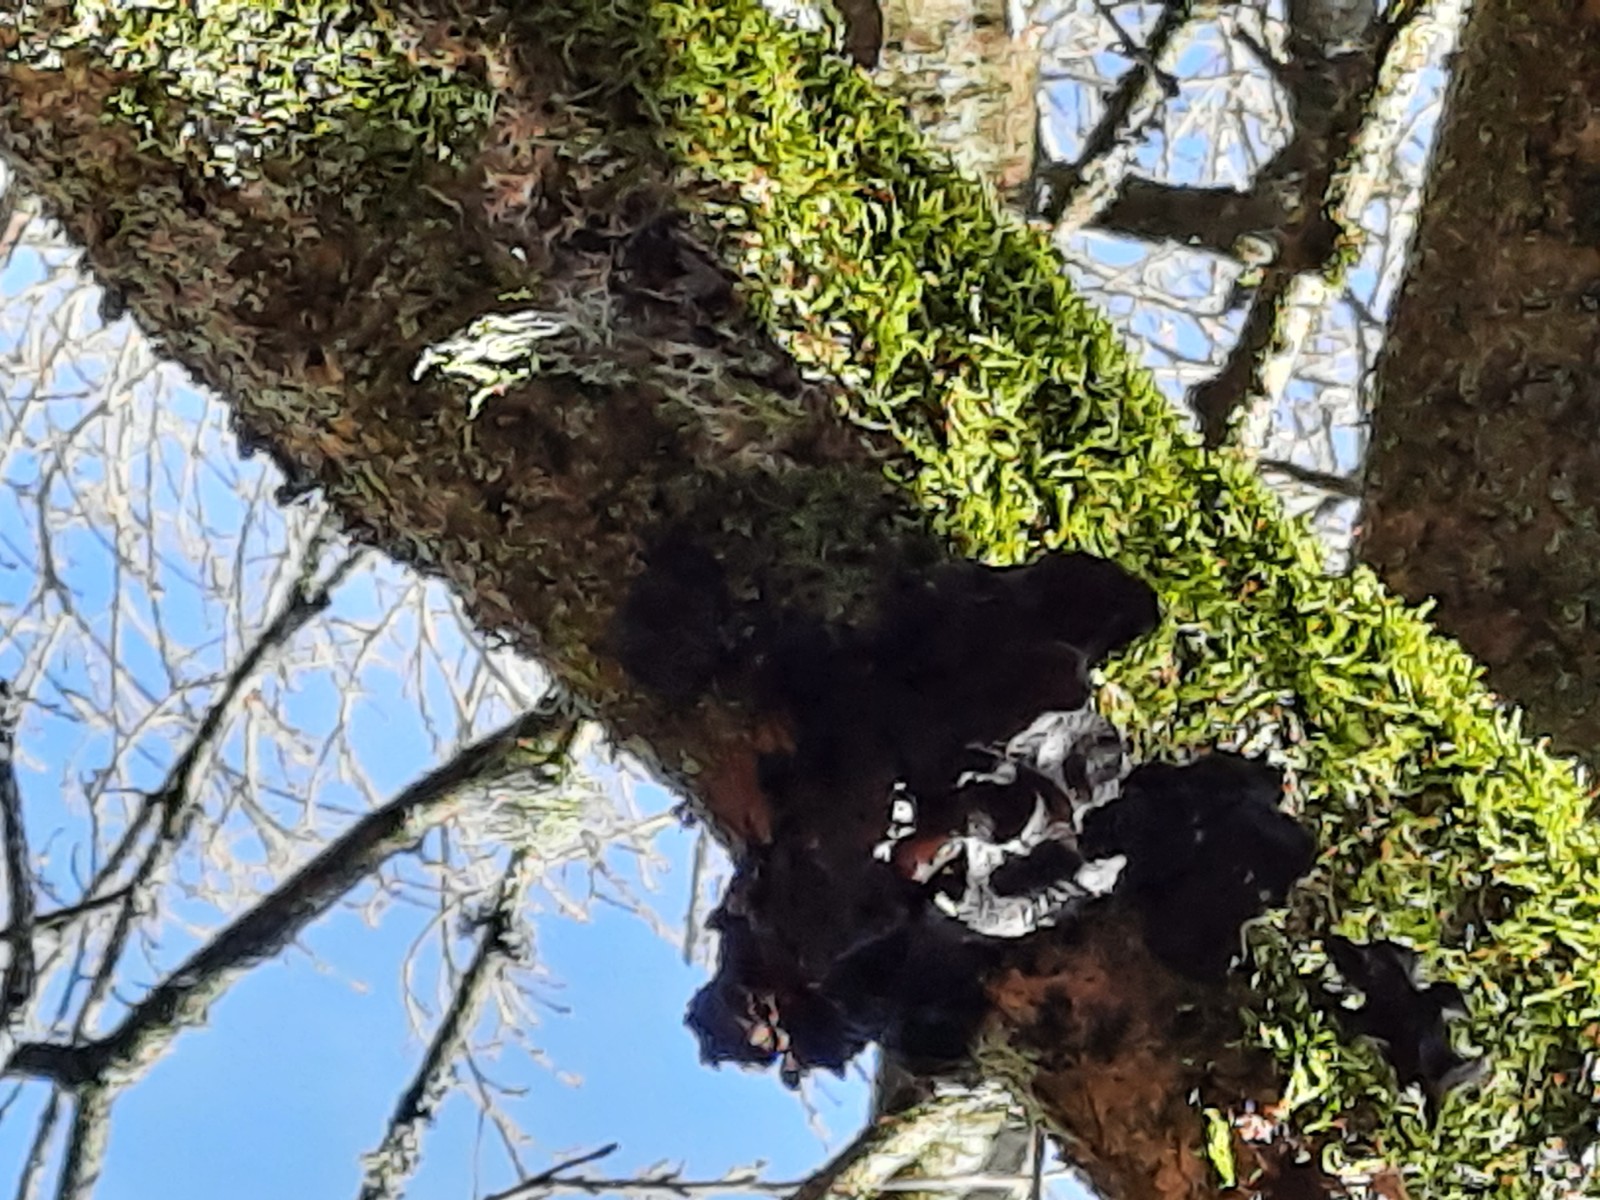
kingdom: Fungi
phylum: Basidiomycota
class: Agaricomycetes
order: Auriculariales
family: Auriculariaceae
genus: Exidia
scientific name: Exidia glandulosa
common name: ege-bævretop
